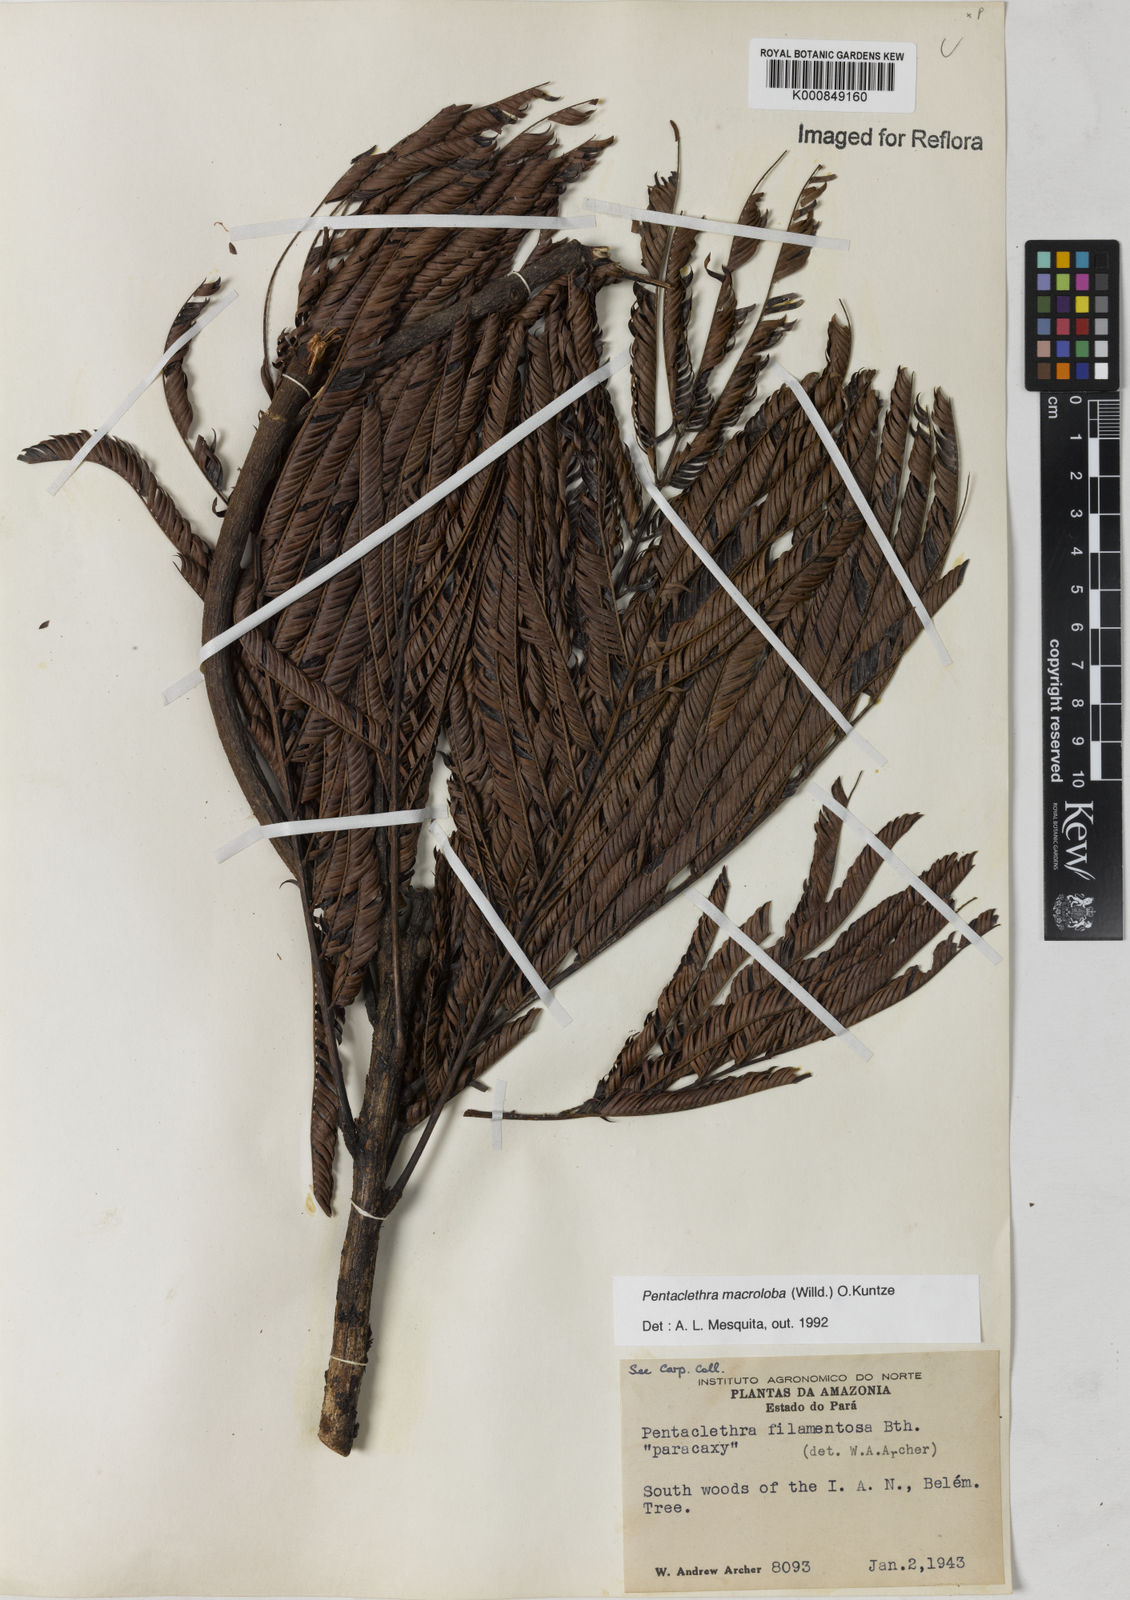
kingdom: Plantae
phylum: Tracheophyta
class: Magnoliopsida
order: Fabales
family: Fabaceae
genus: Pentaclethra
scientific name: Pentaclethra macroloba
